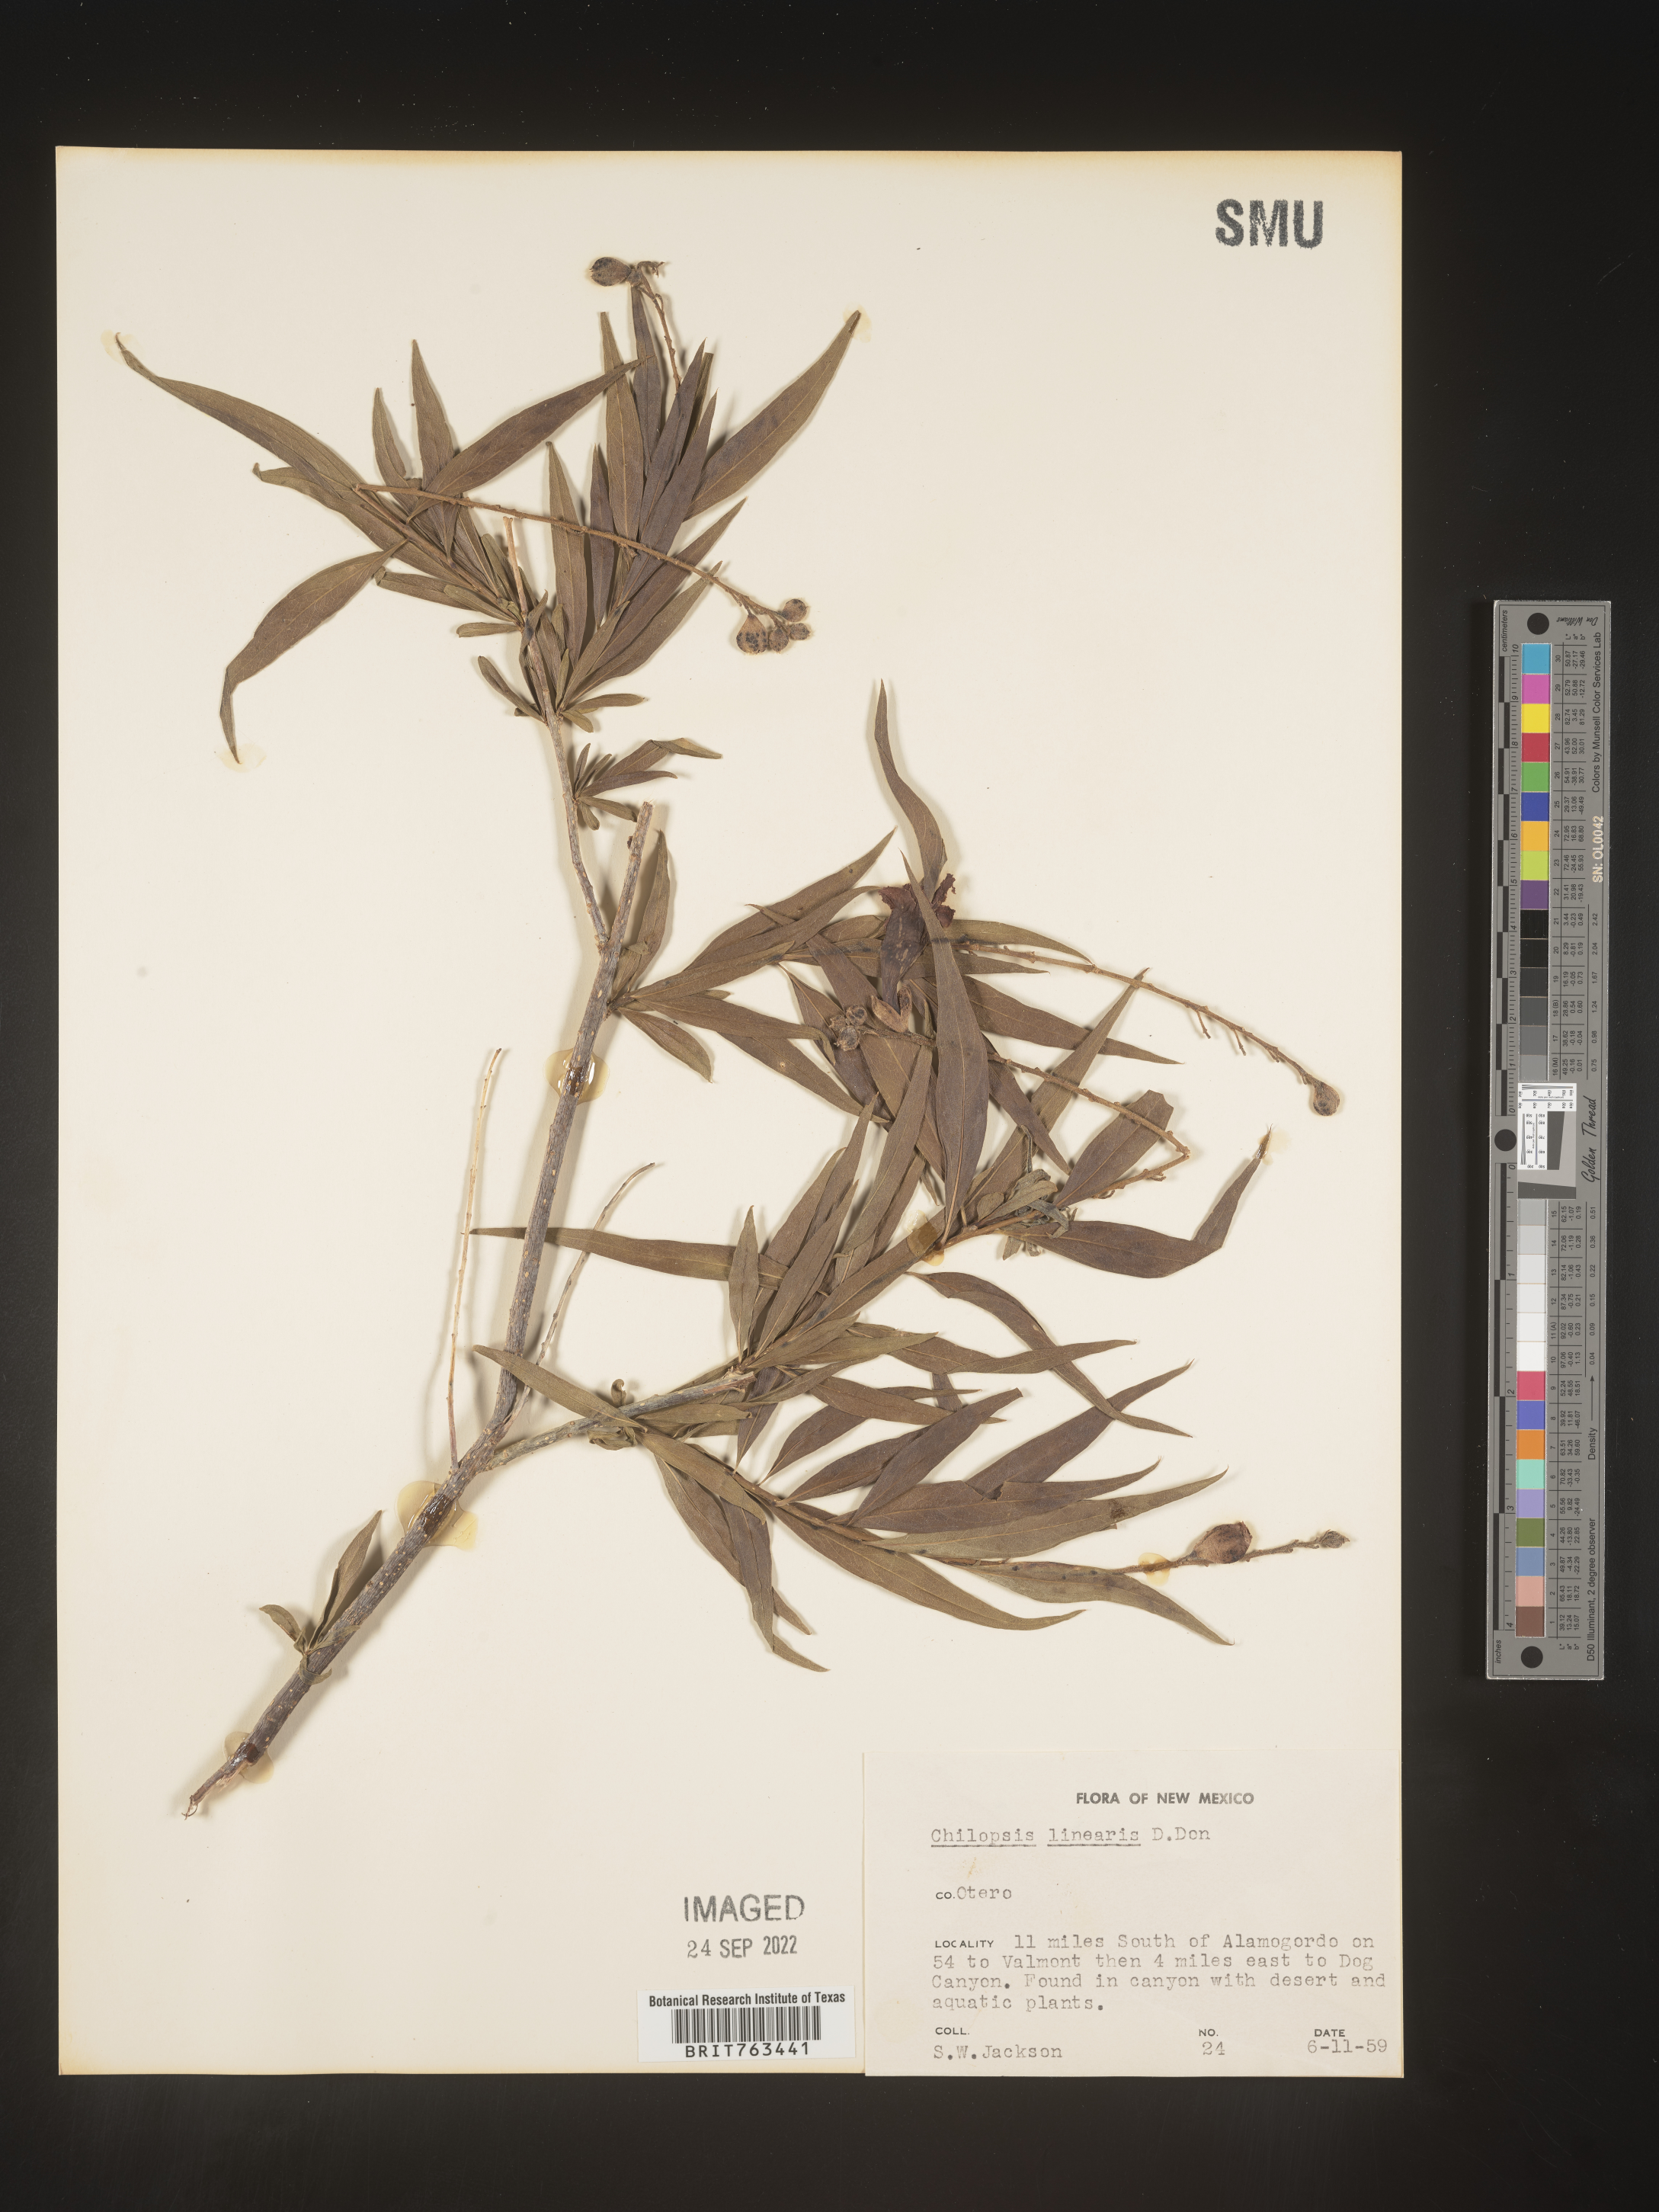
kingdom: Plantae
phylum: Tracheophyta
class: Magnoliopsida
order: Lamiales
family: Bignoniaceae
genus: Chilopsis
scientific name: Chilopsis linearis
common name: Desert-willow
